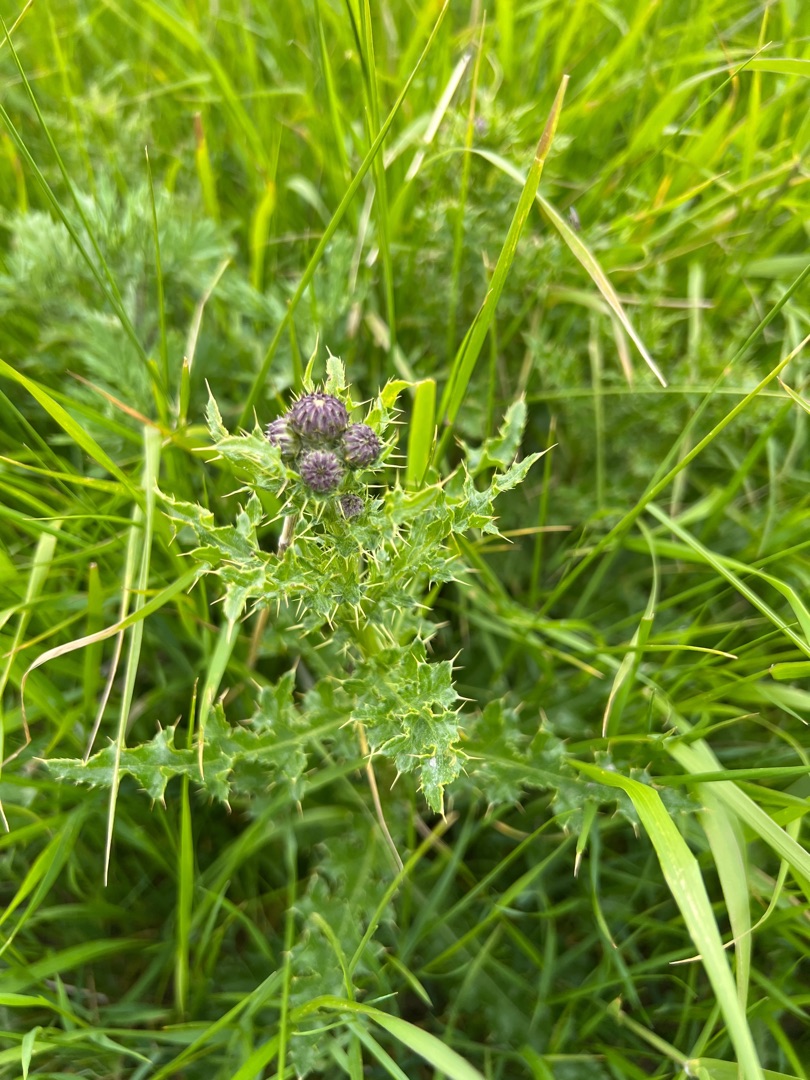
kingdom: Plantae
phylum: Tracheophyta
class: Magnoliopsida
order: Asterales
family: Asteraceae
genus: Cirsium
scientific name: Cirsium arvense
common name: Ager-tidsel
